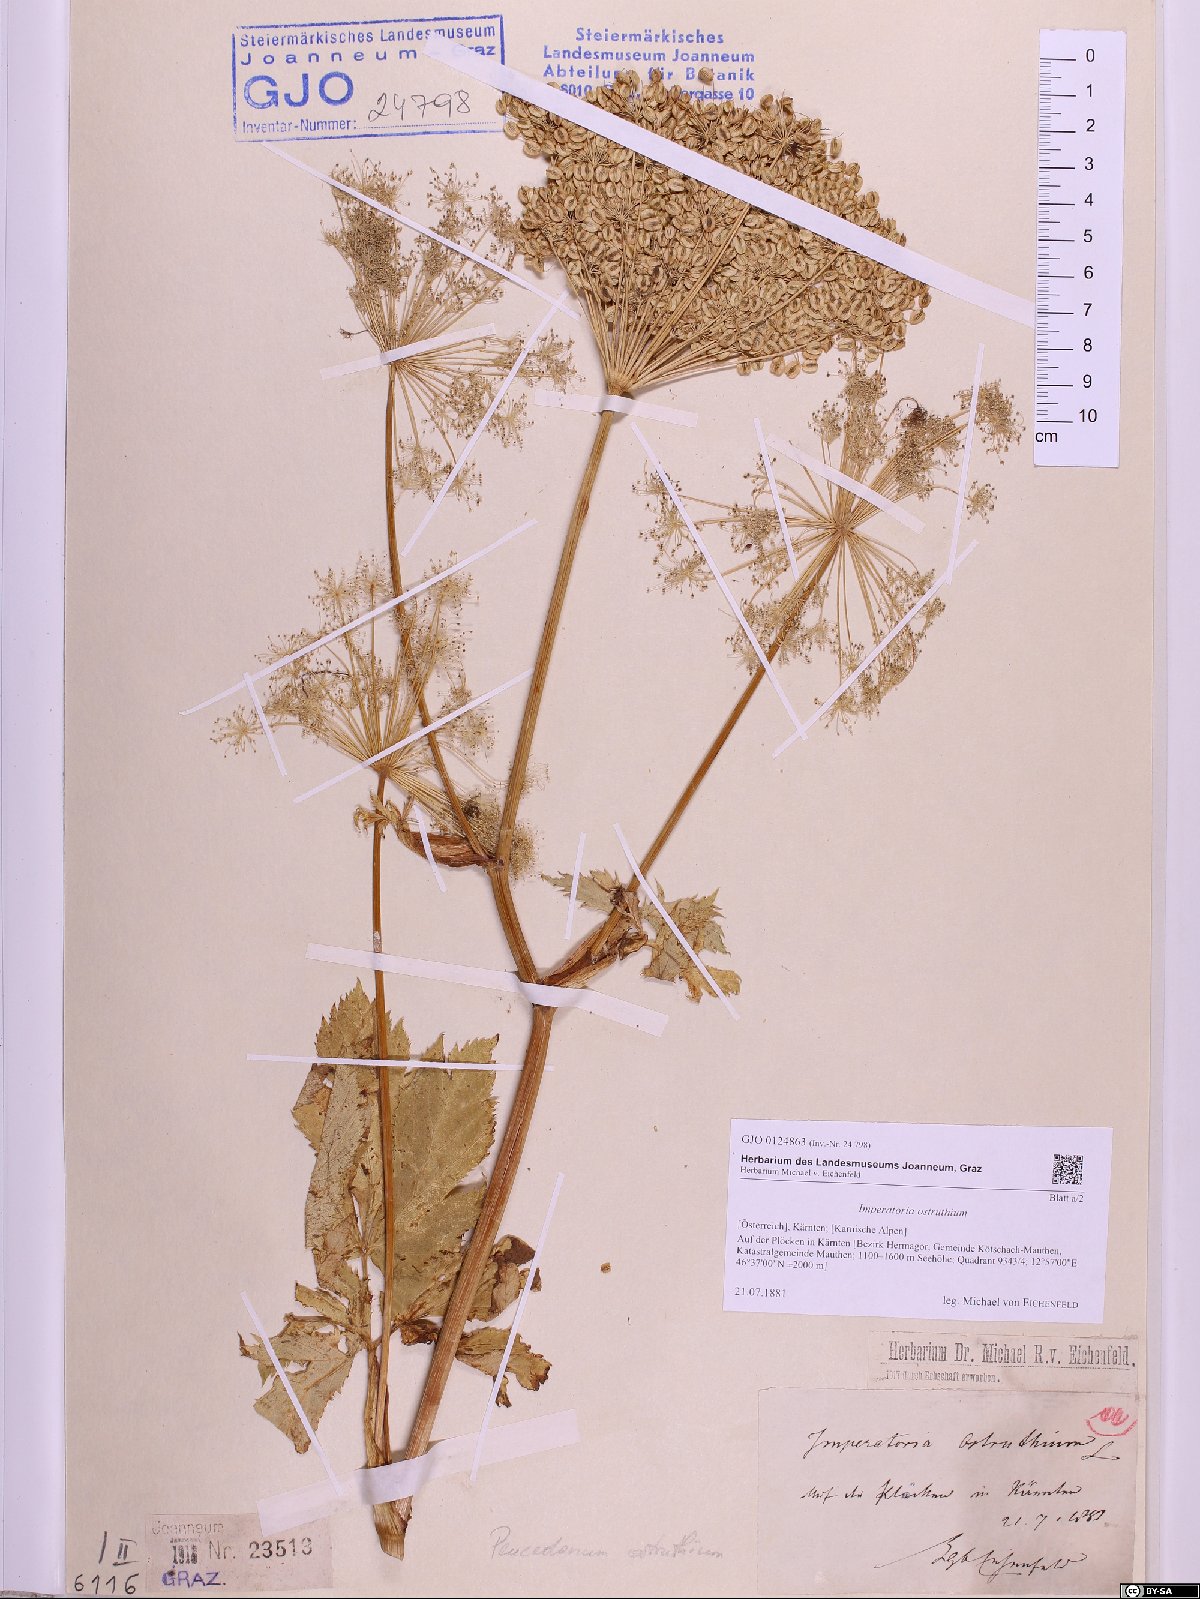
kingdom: Plantae
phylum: Tracheophyta
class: Magnoliopsida
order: Apiales
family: Apiaceae
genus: Imperatoria
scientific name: Imperatoria ostruthium
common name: Masterwort
